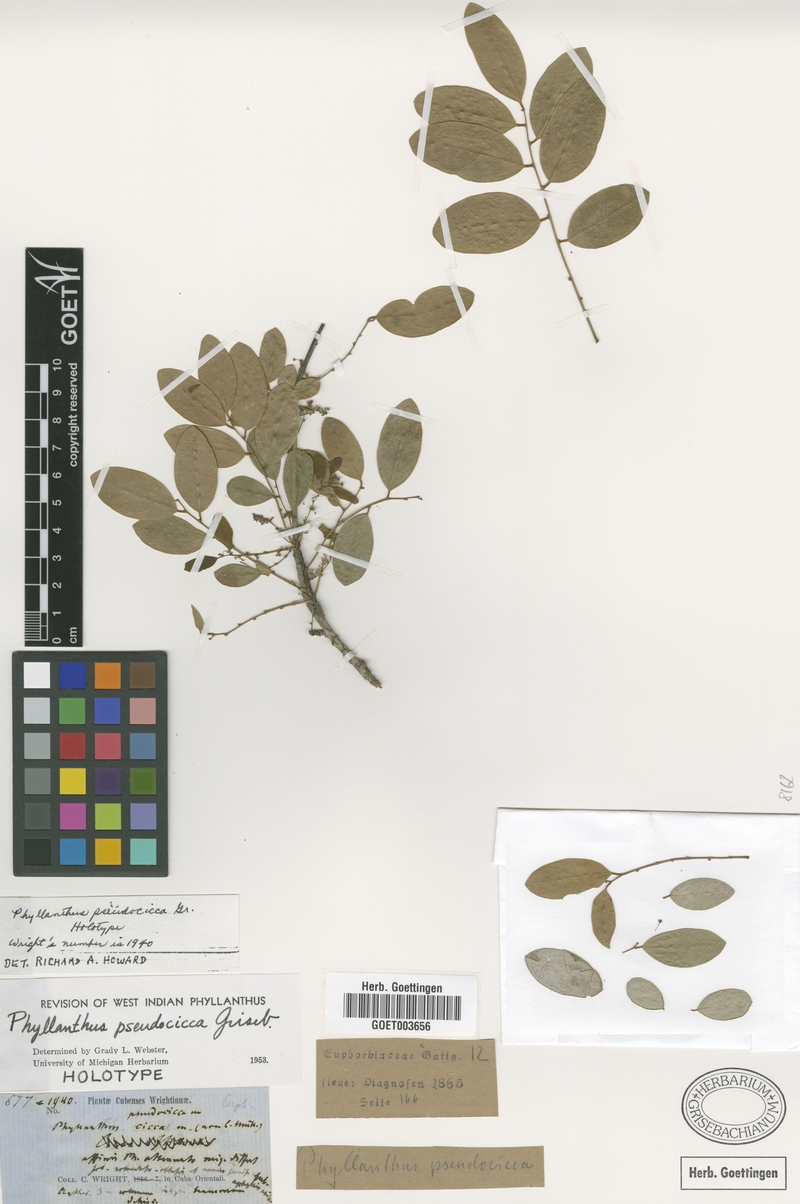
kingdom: Plantae
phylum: Tracheophyta
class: Magnoliopsida
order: Malpighiales
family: Phyllanthaceae
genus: Phyllanthus
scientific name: Phyllanthus pseudocicca
